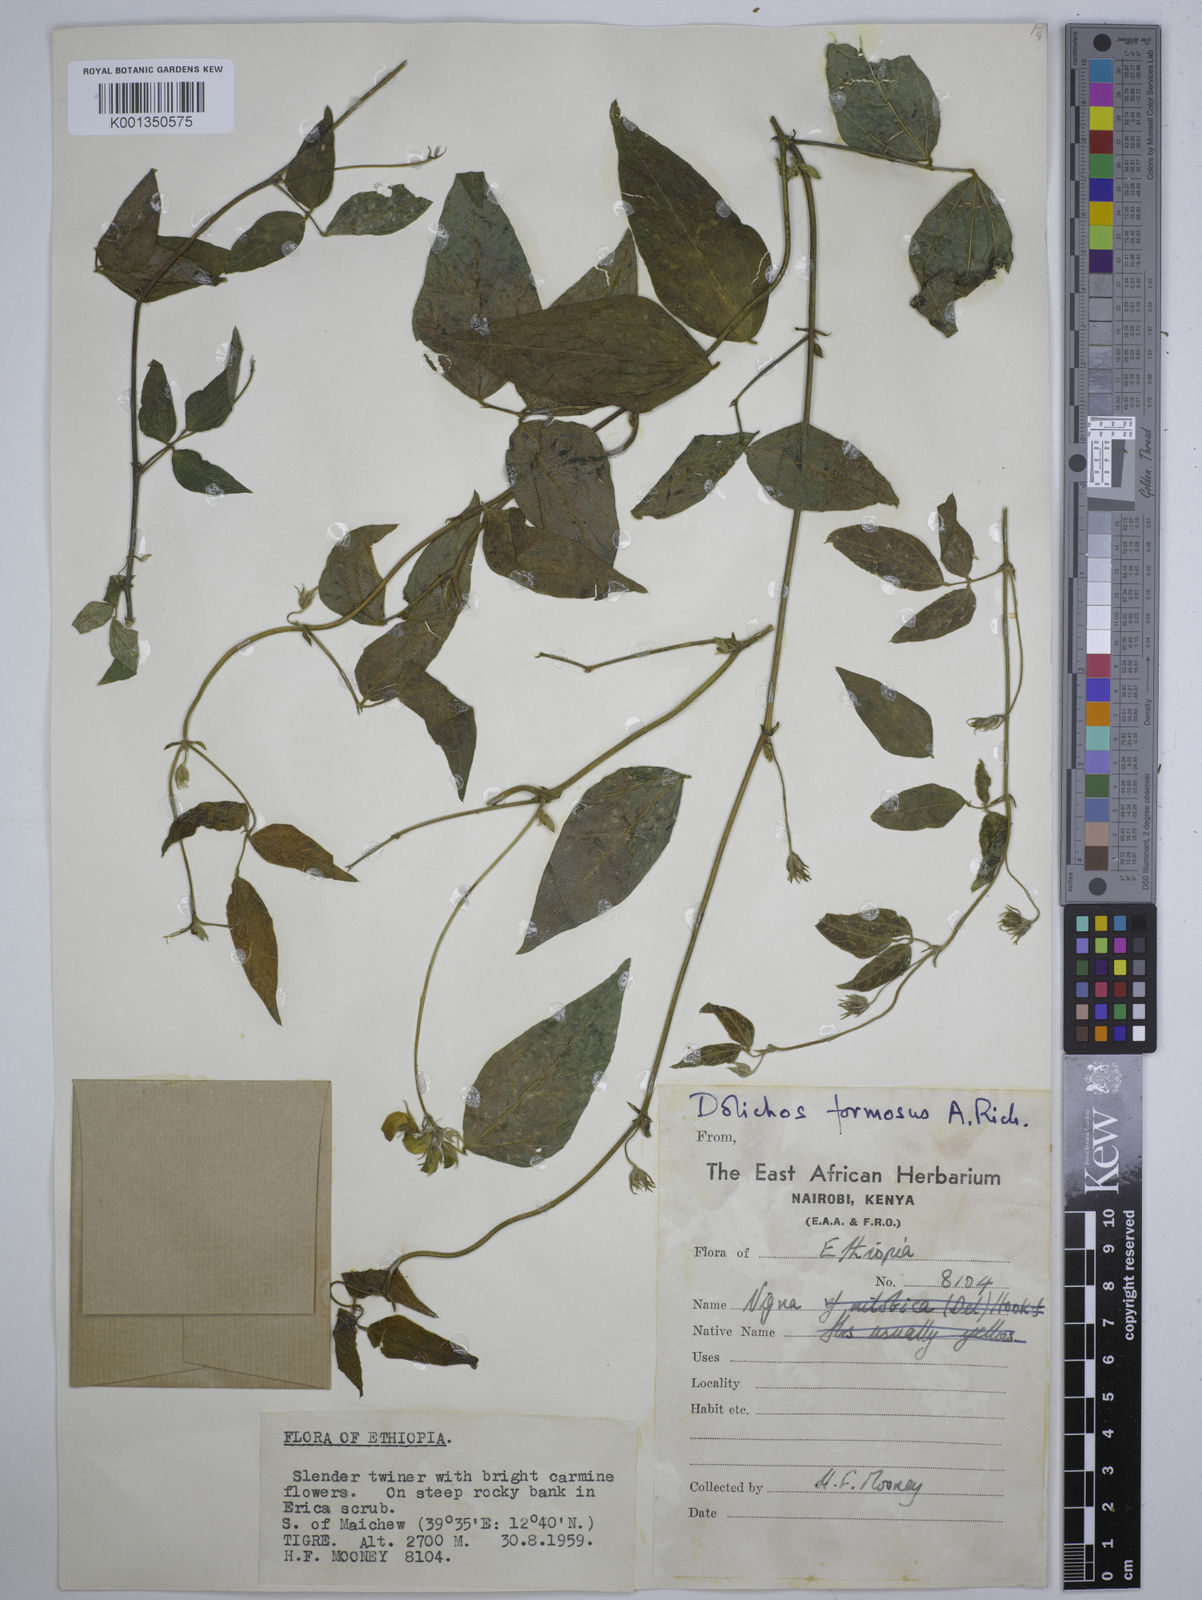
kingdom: Plantae
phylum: Tracheophyta
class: Magnoliopsida
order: Fabales
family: Fabaceae
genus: Dolichos
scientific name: Dolichos
